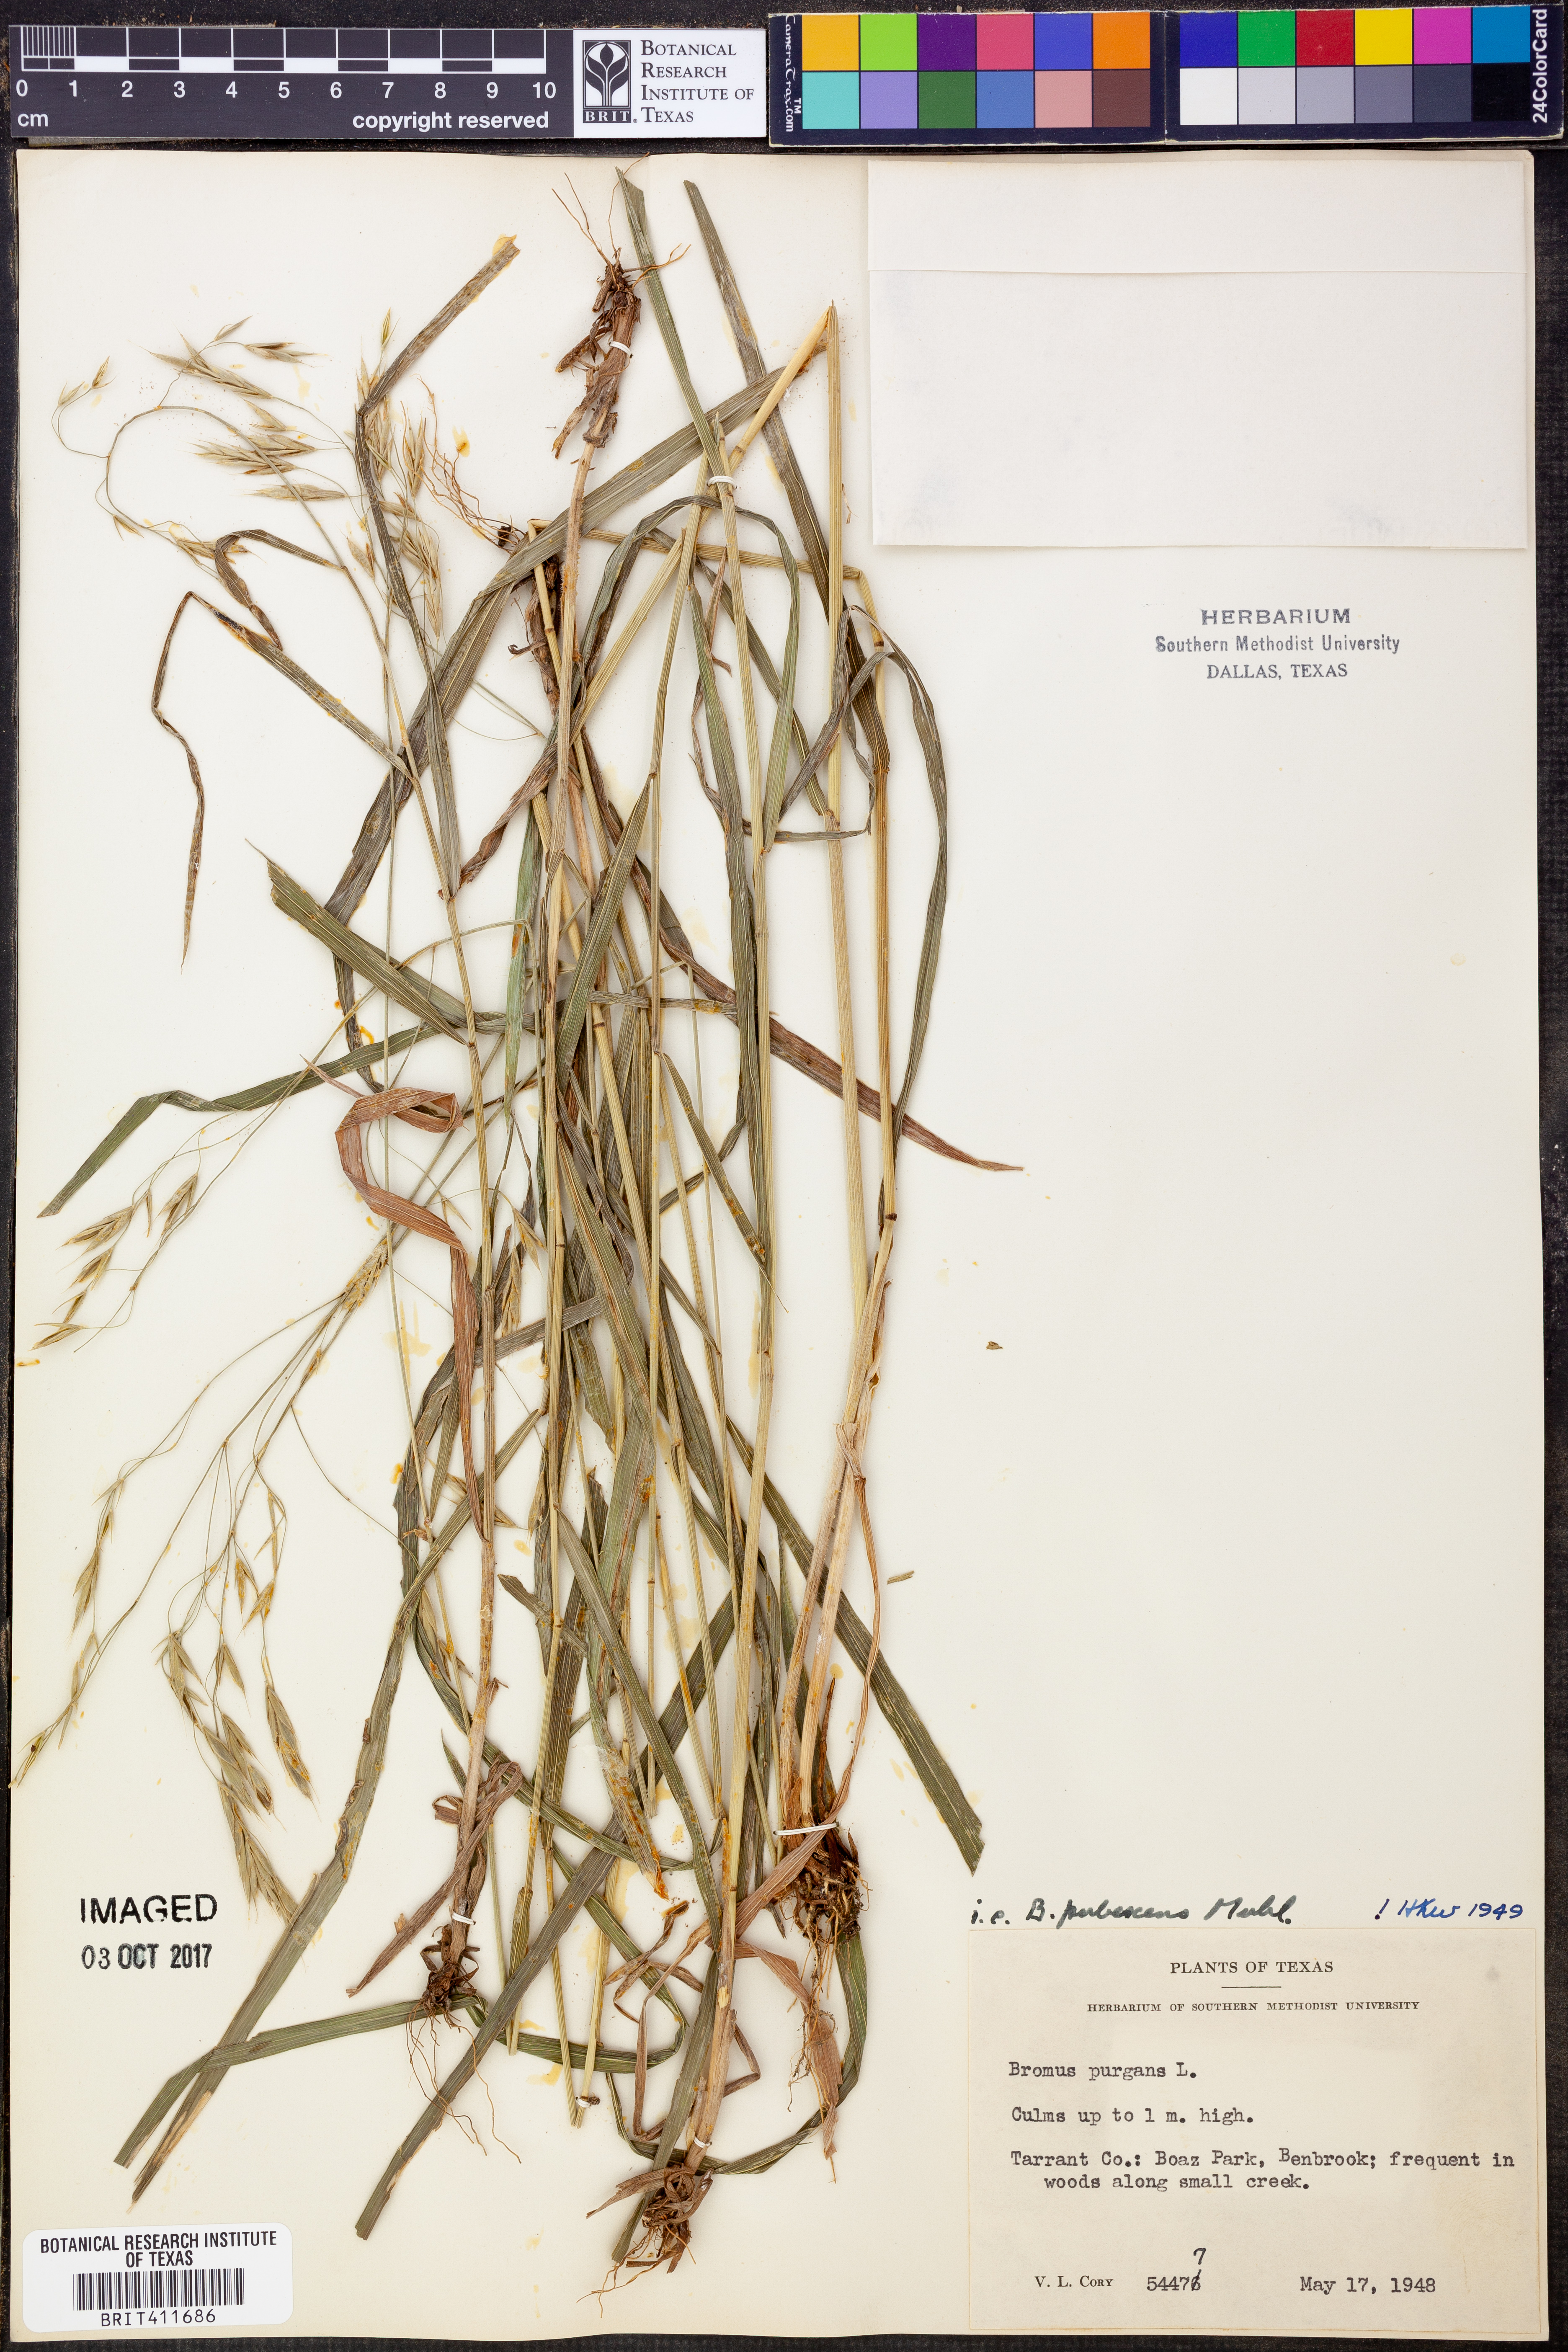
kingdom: Plantae
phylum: Tracheophyta
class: Liliopsida
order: Poales
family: Poaceae
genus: Bromus
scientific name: Bromus pubescens
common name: Hairy wood brome grass
